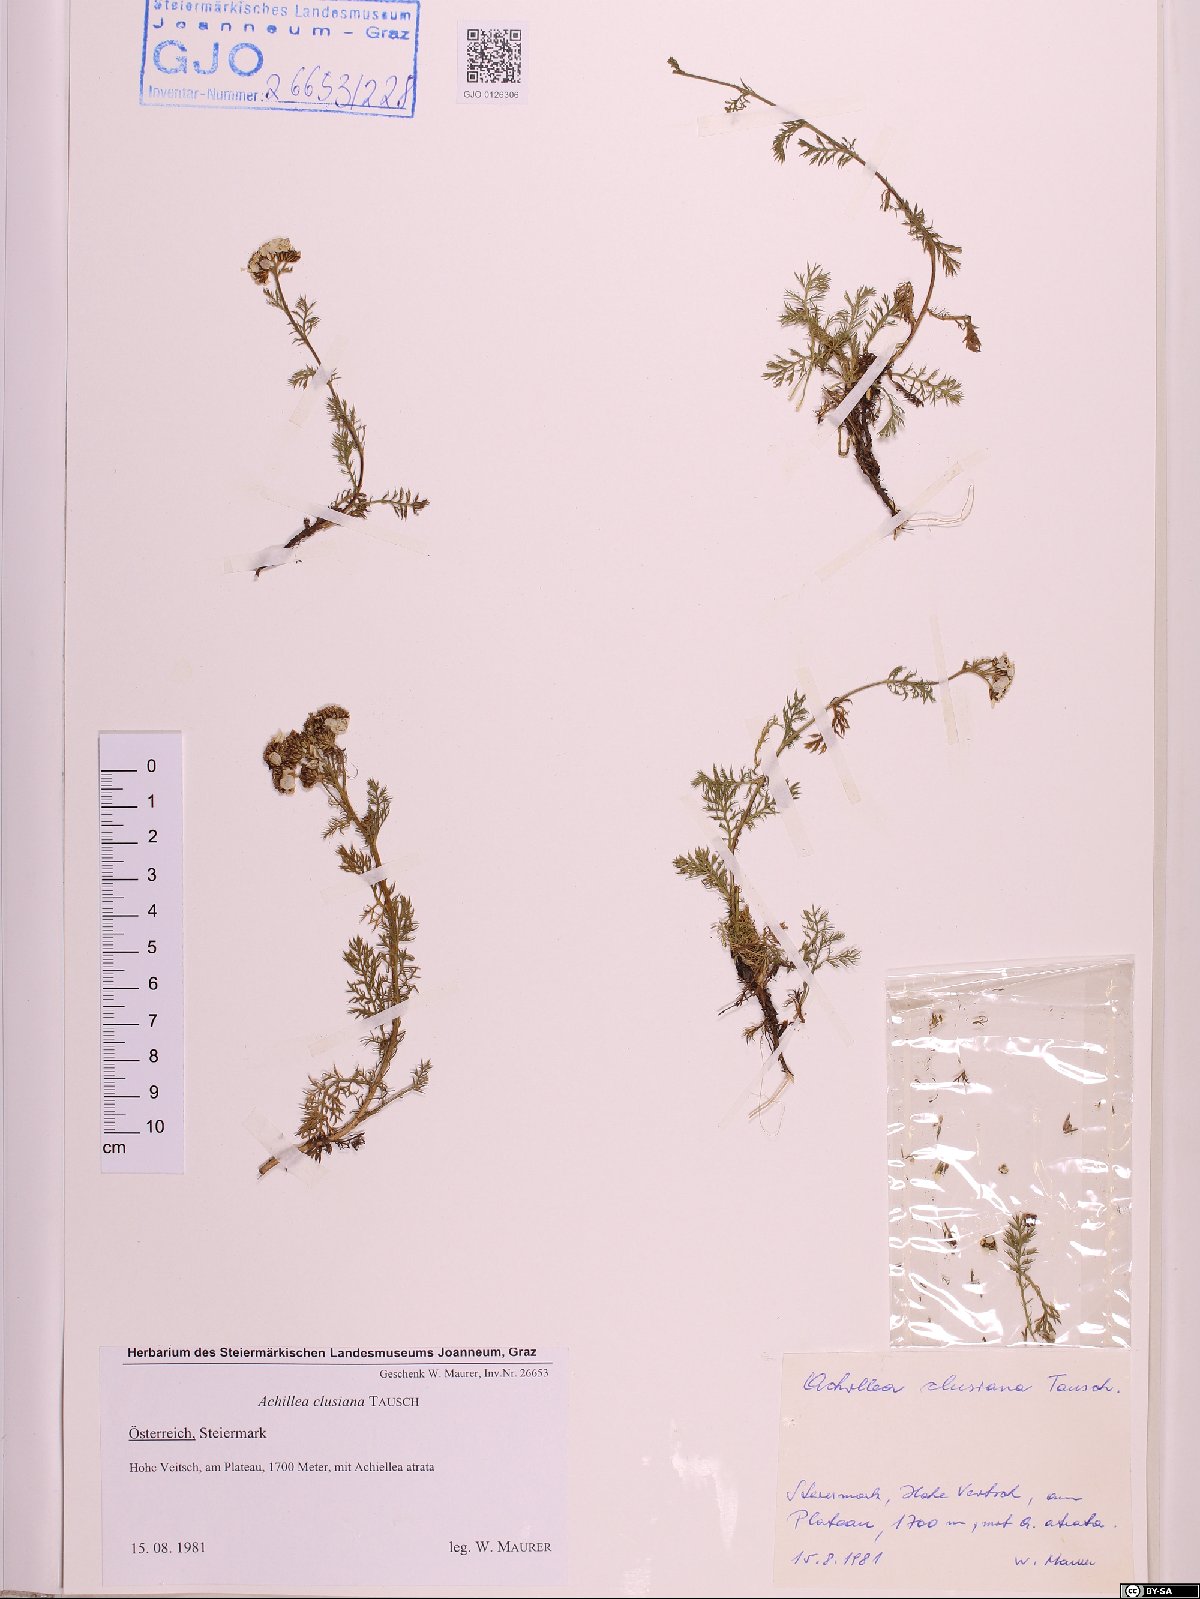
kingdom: Plantae
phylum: Tracheophyta
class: Magnoliopsida
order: Asterales
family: Asteraceae
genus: Achillea
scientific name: Achillea clusiana
